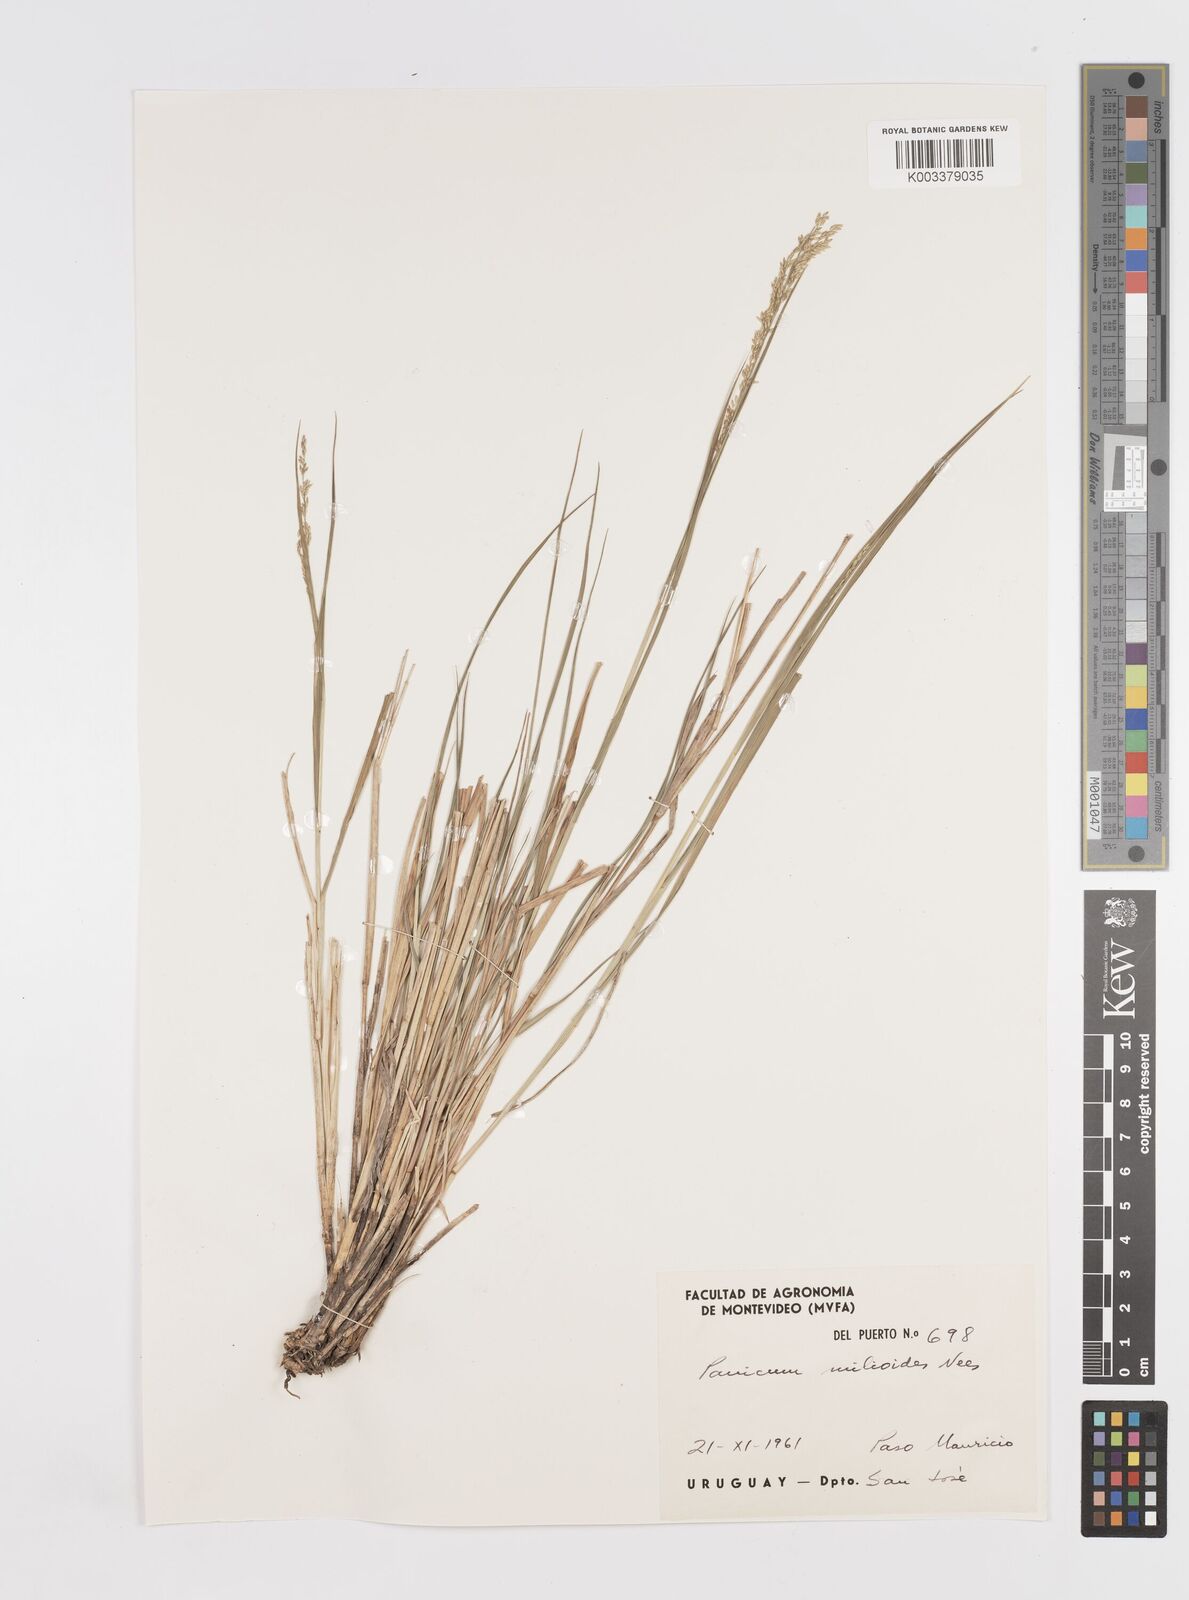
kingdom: Plantae
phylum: Tracheophyta
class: Liliopsida
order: Poales
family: Poaceae
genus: Steinchisma
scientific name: Steinchisma hians
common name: Gaping panic grass
